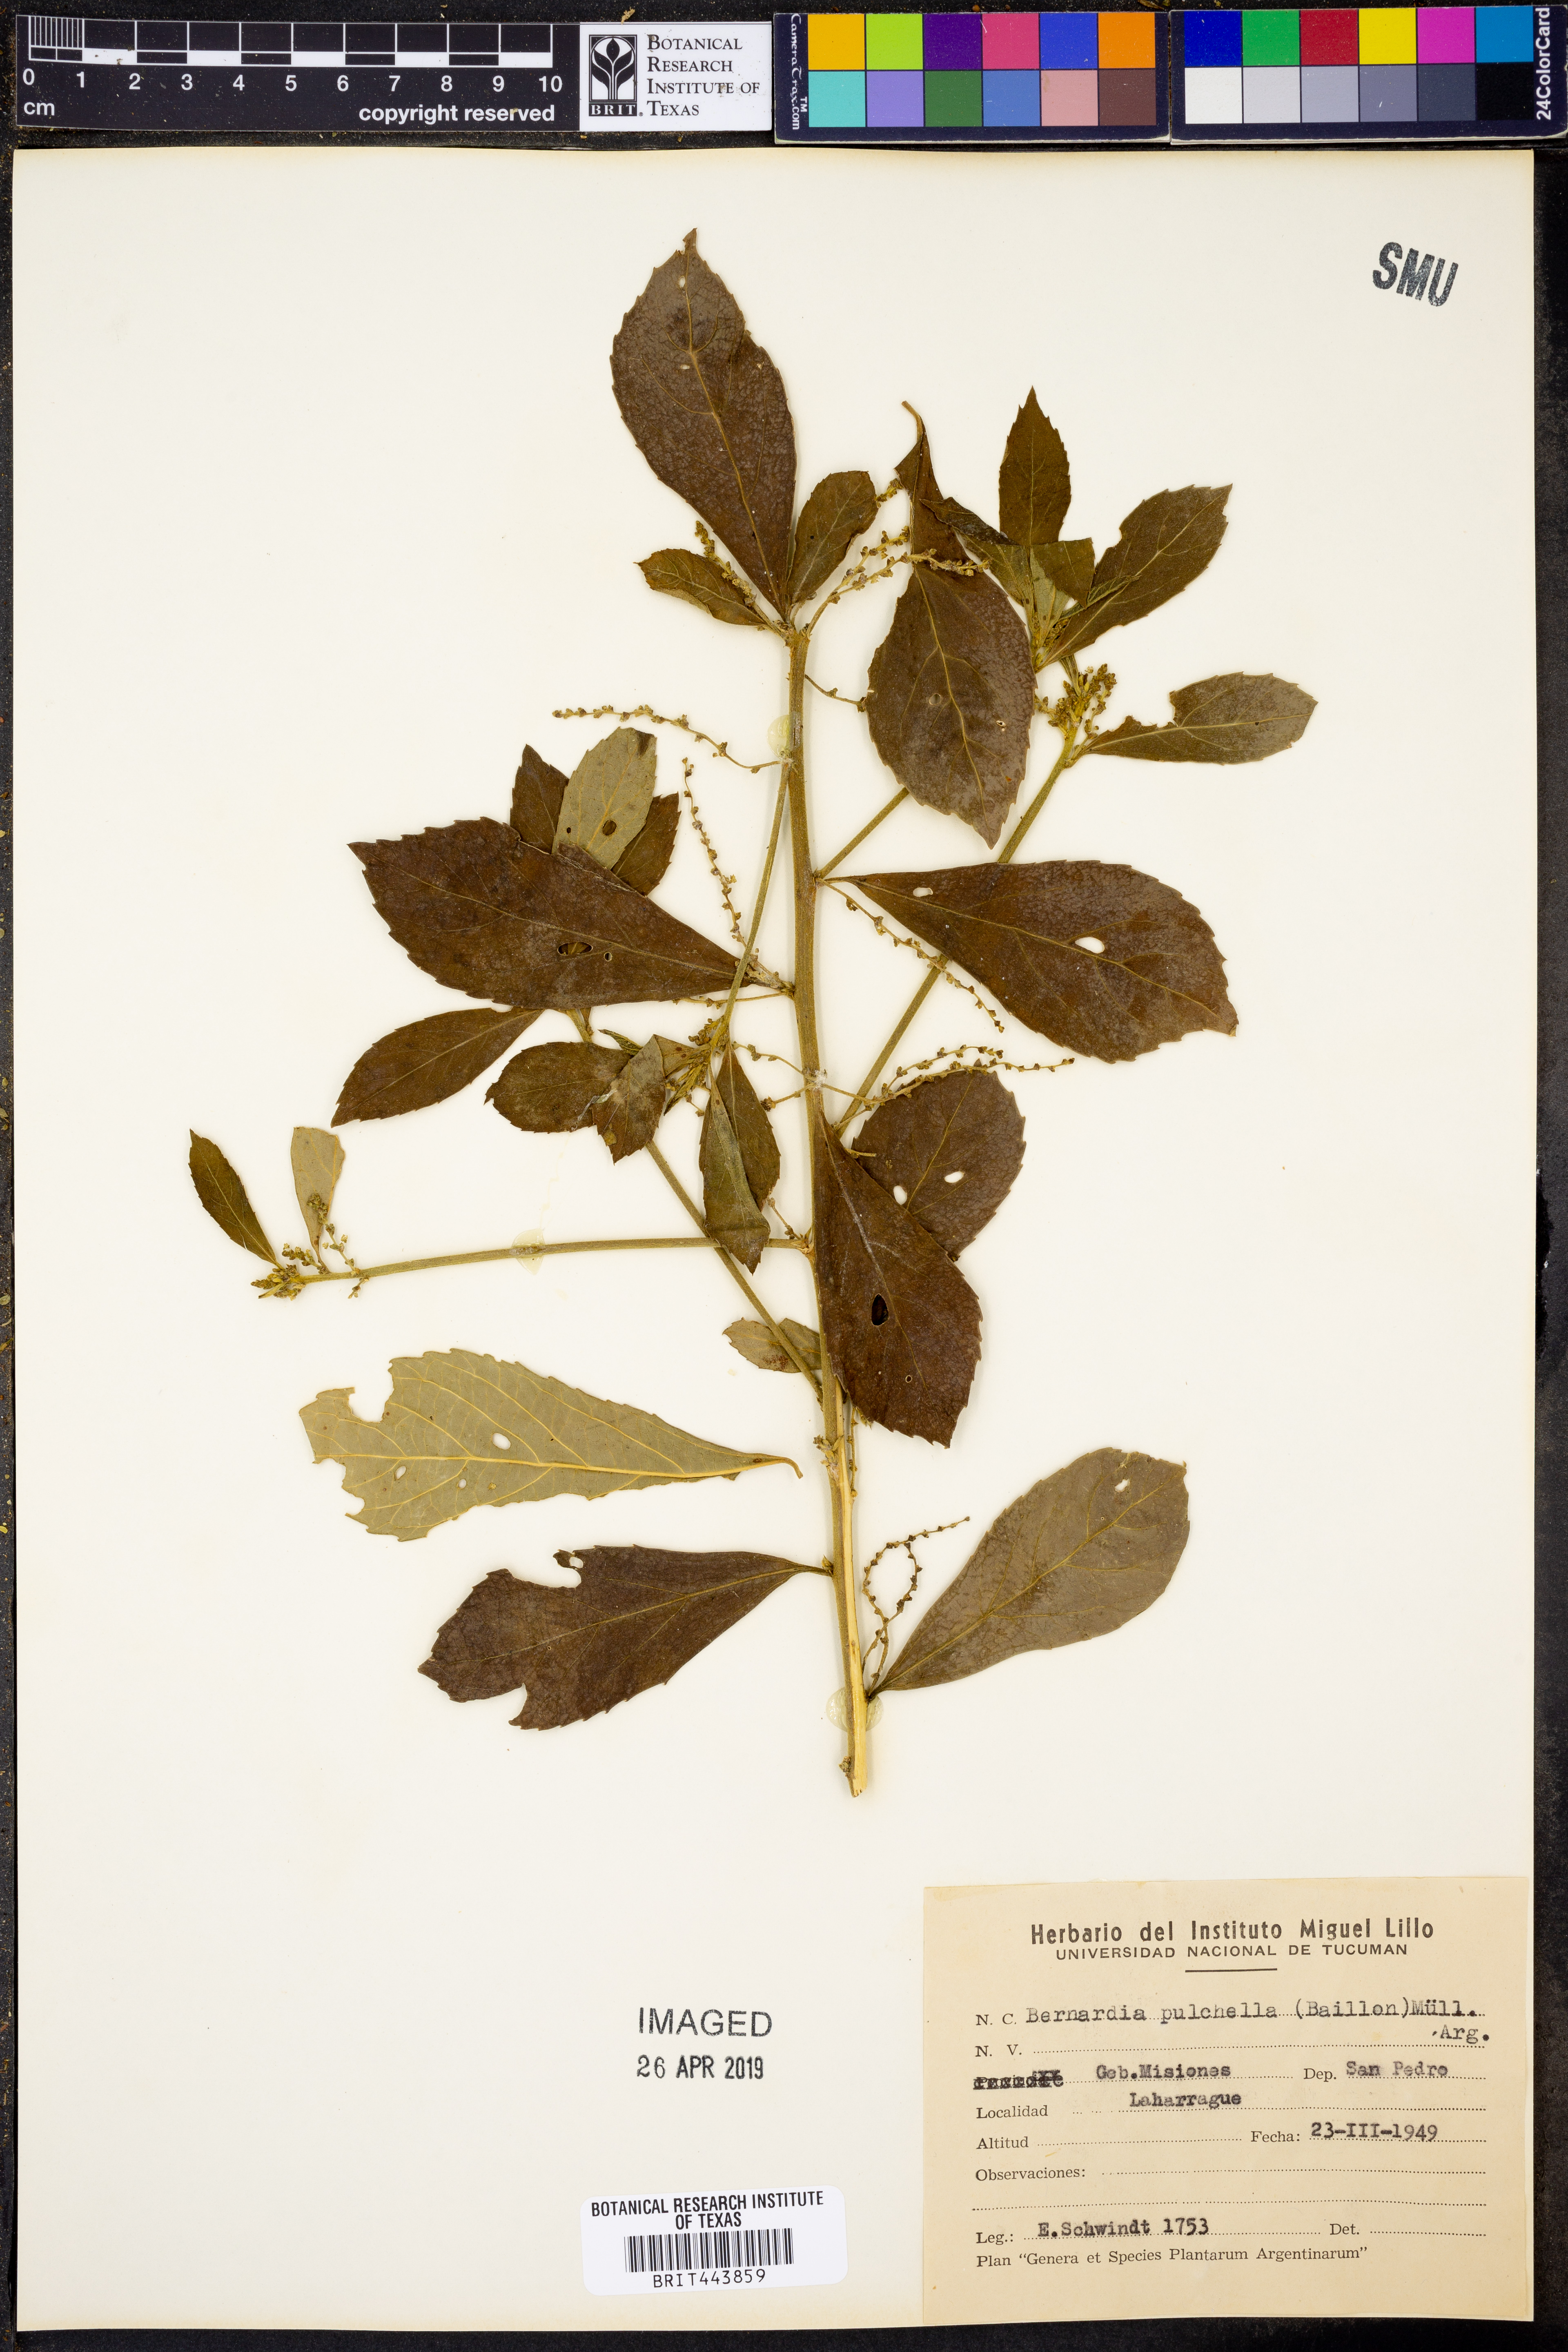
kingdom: Plantae
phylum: Tracheophyta
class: Magnoliopsida
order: Malpighiales
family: Euphorbiaceae
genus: Bernardia
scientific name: Bernardia pulchella
